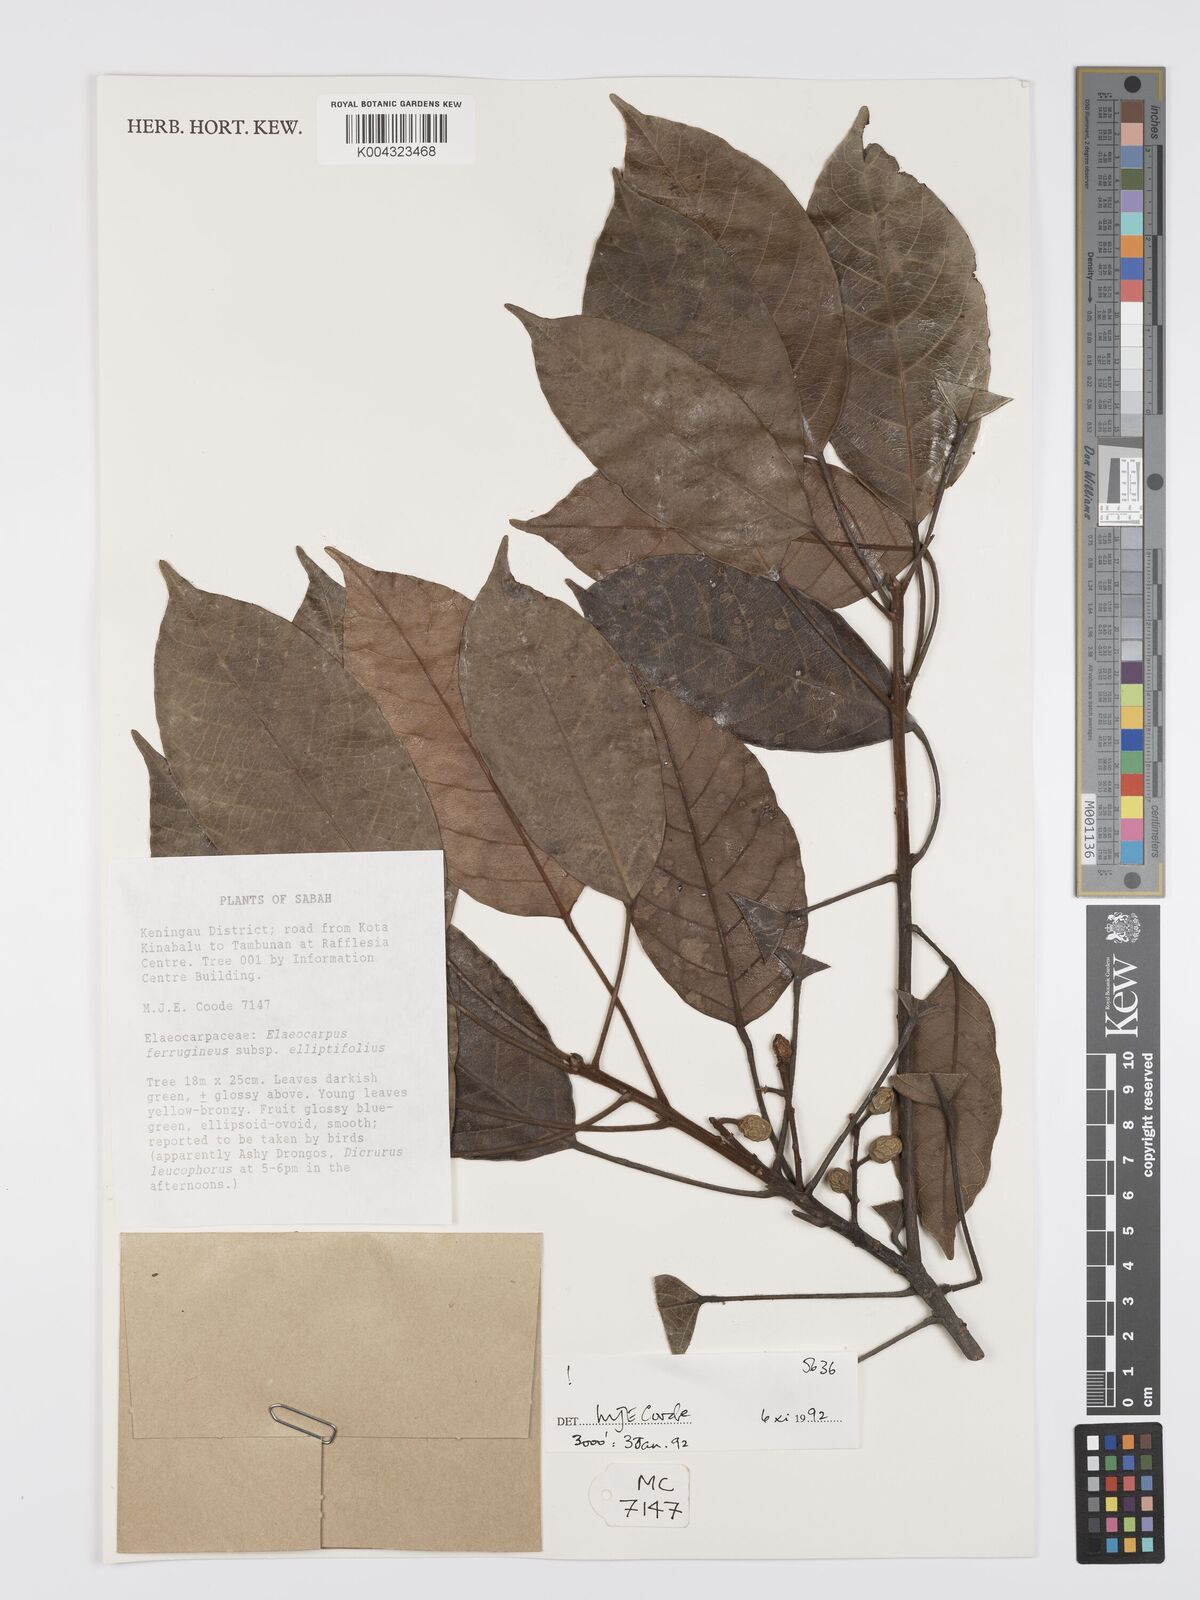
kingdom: Plantae
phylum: Tracheophyta
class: Magnoliopsida
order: Oxalidales
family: Elaeocarpaceae
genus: Elaeocarpus
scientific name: Elaeocarpus ferrugineus
